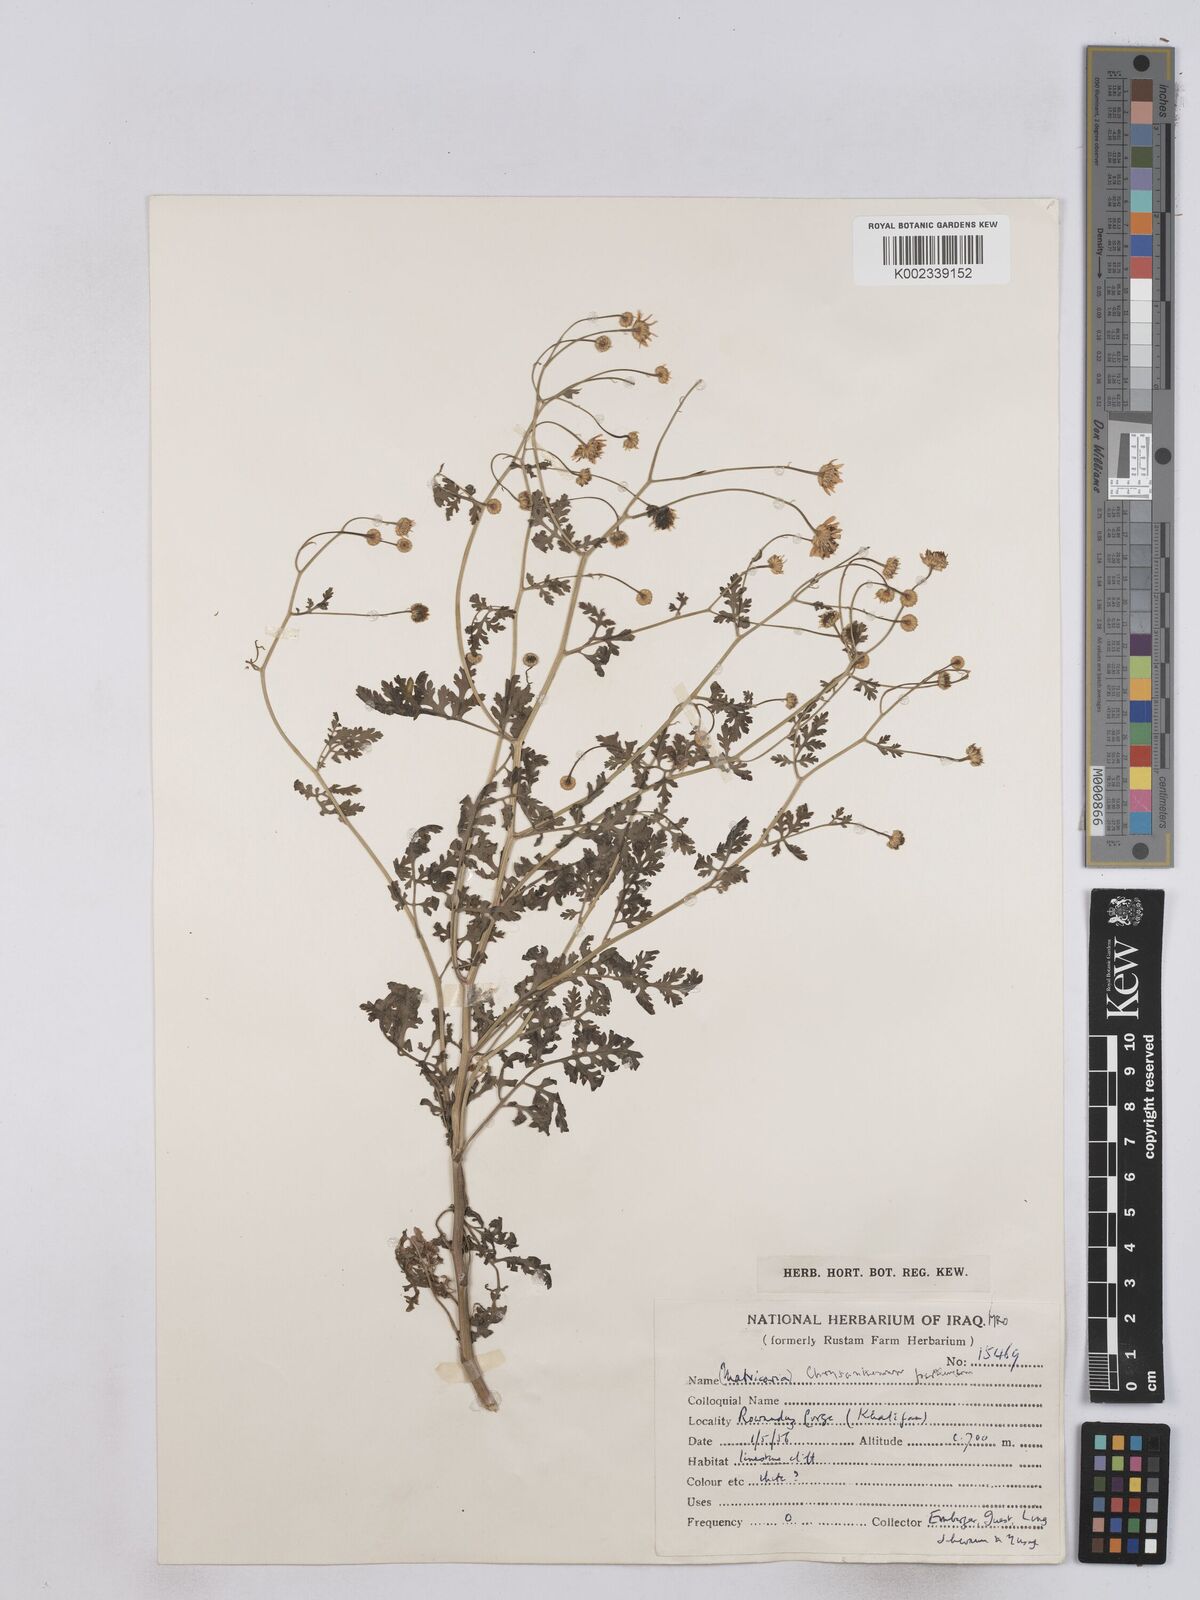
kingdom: Plantae
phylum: Tracheophyta
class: Magnoliopsida
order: Asterales
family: Asteraceae
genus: Tanacetum
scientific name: Tanacetum partheniifolium
